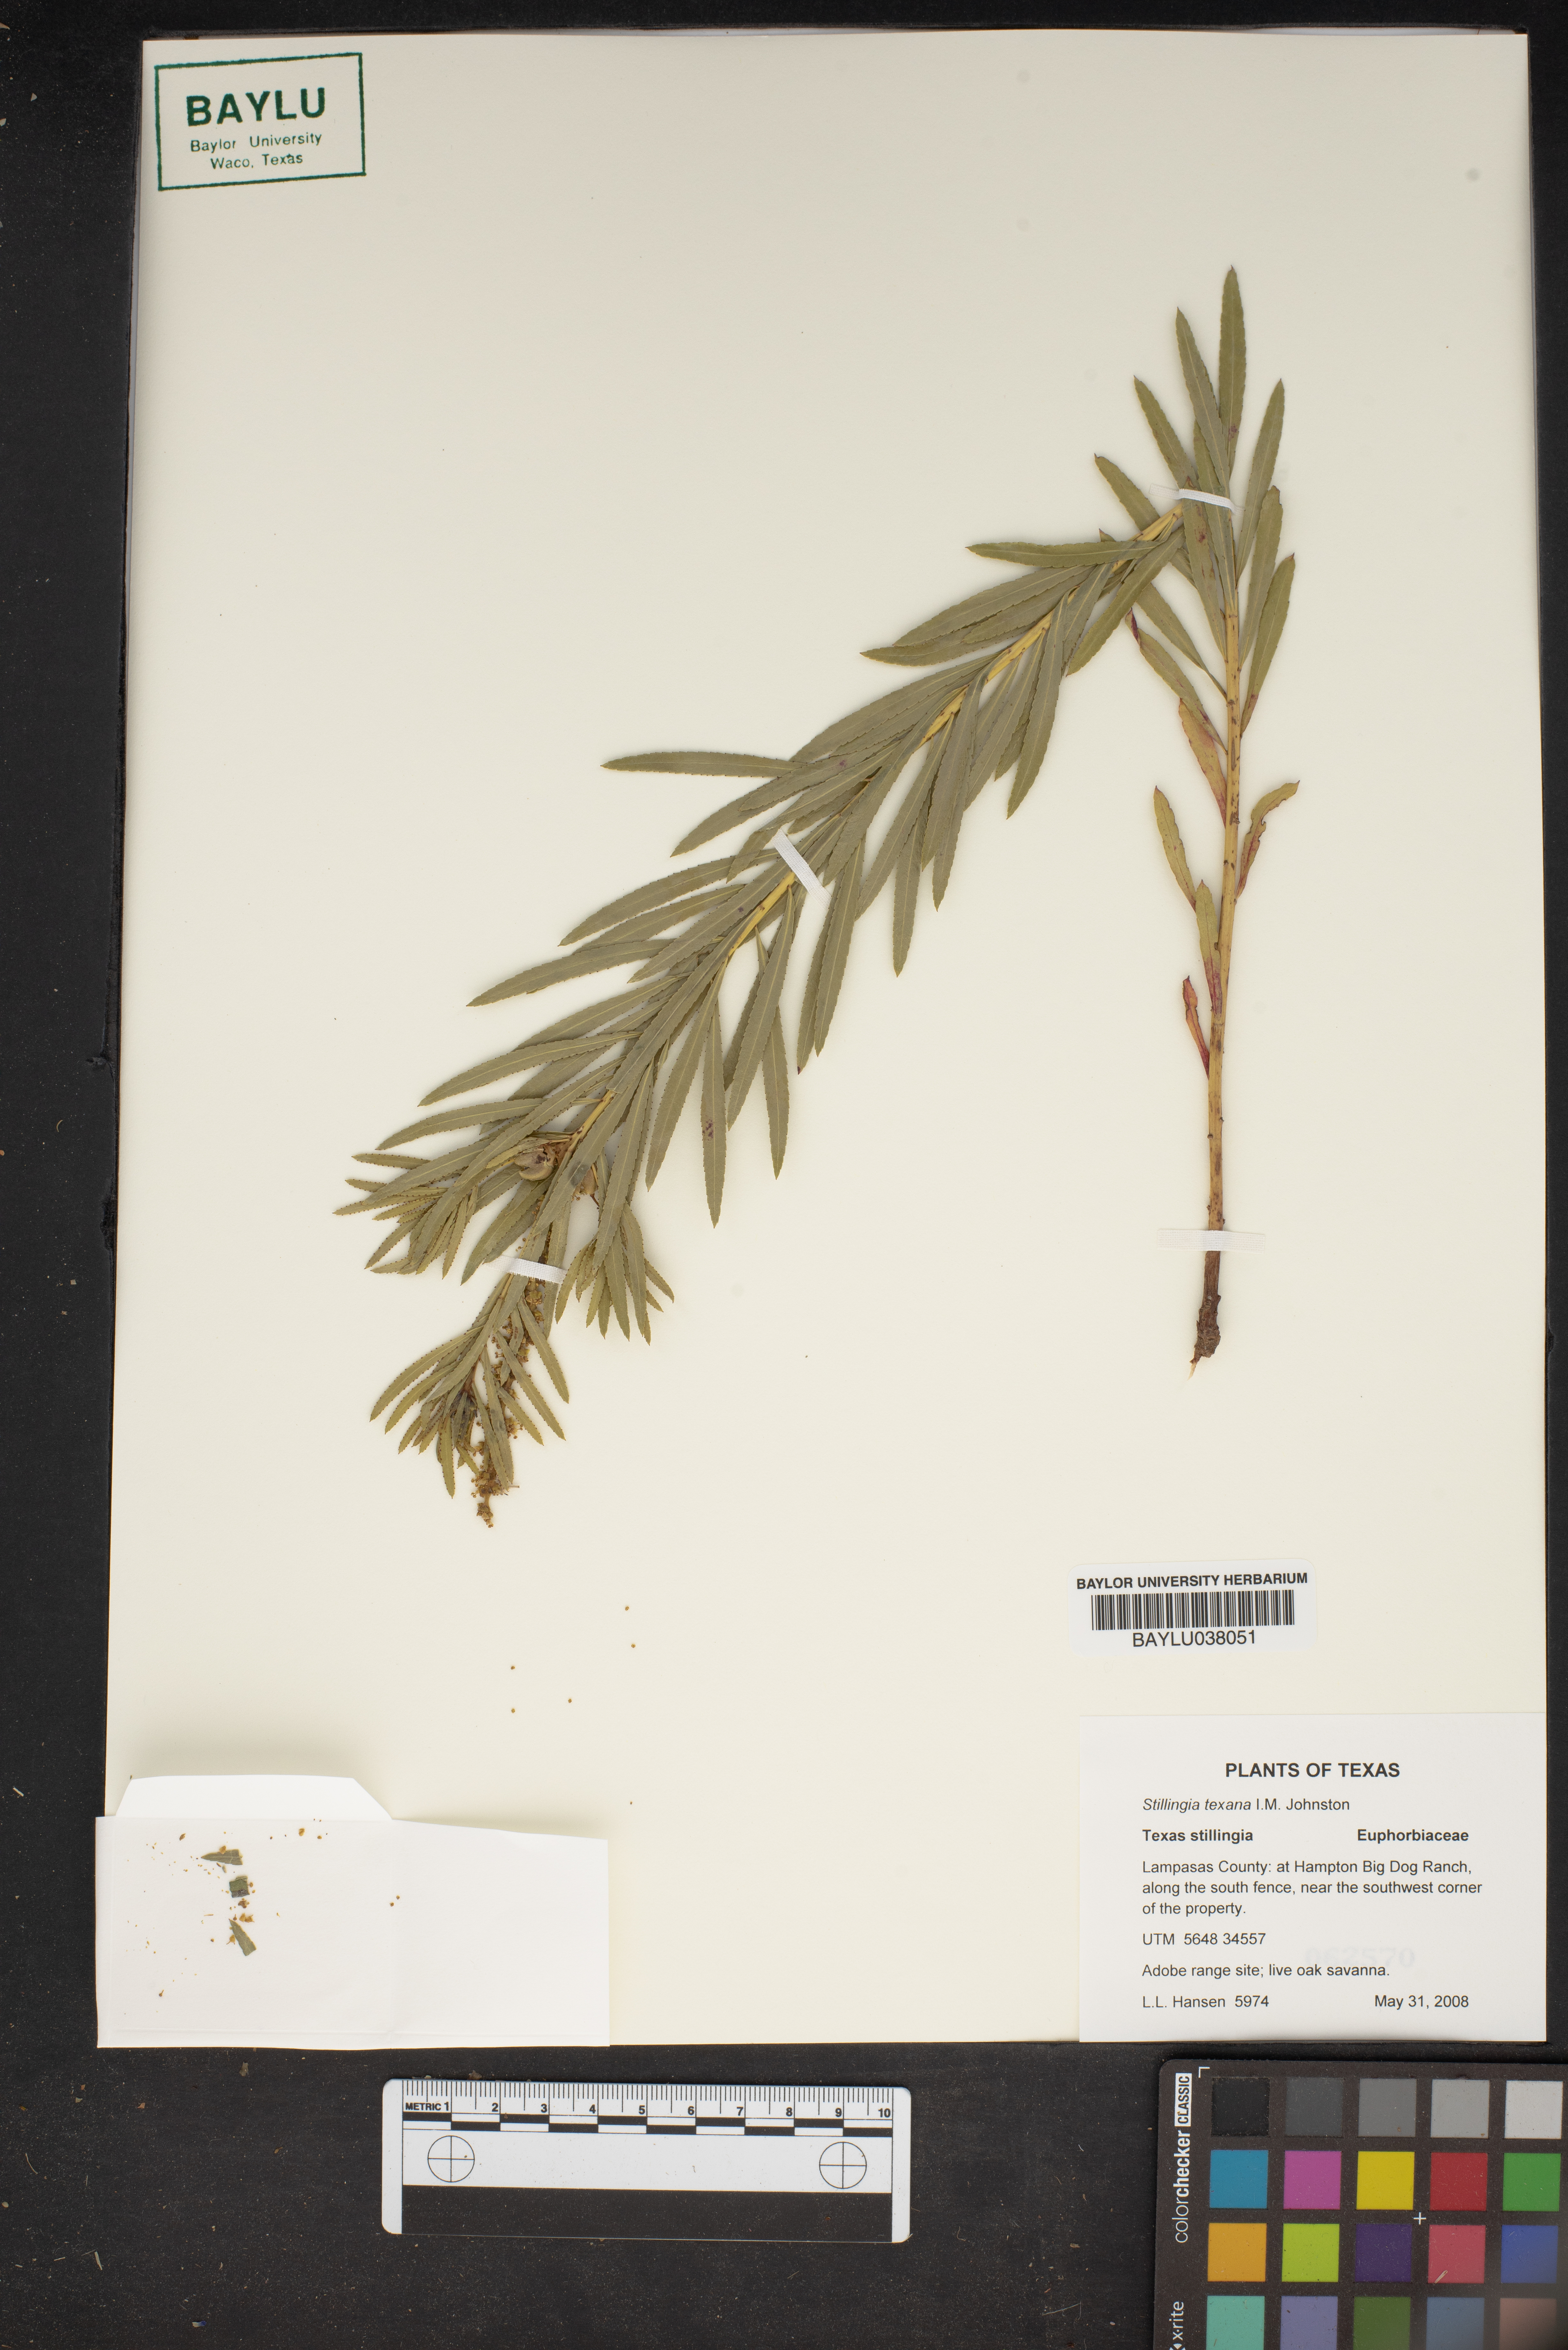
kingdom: Plantae
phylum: Tracheophyta
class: Magnoliopsida
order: Malpighiales
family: Euphorbiaceae
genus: Stillingia
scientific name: Stillingia texana
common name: Texas stillingia
